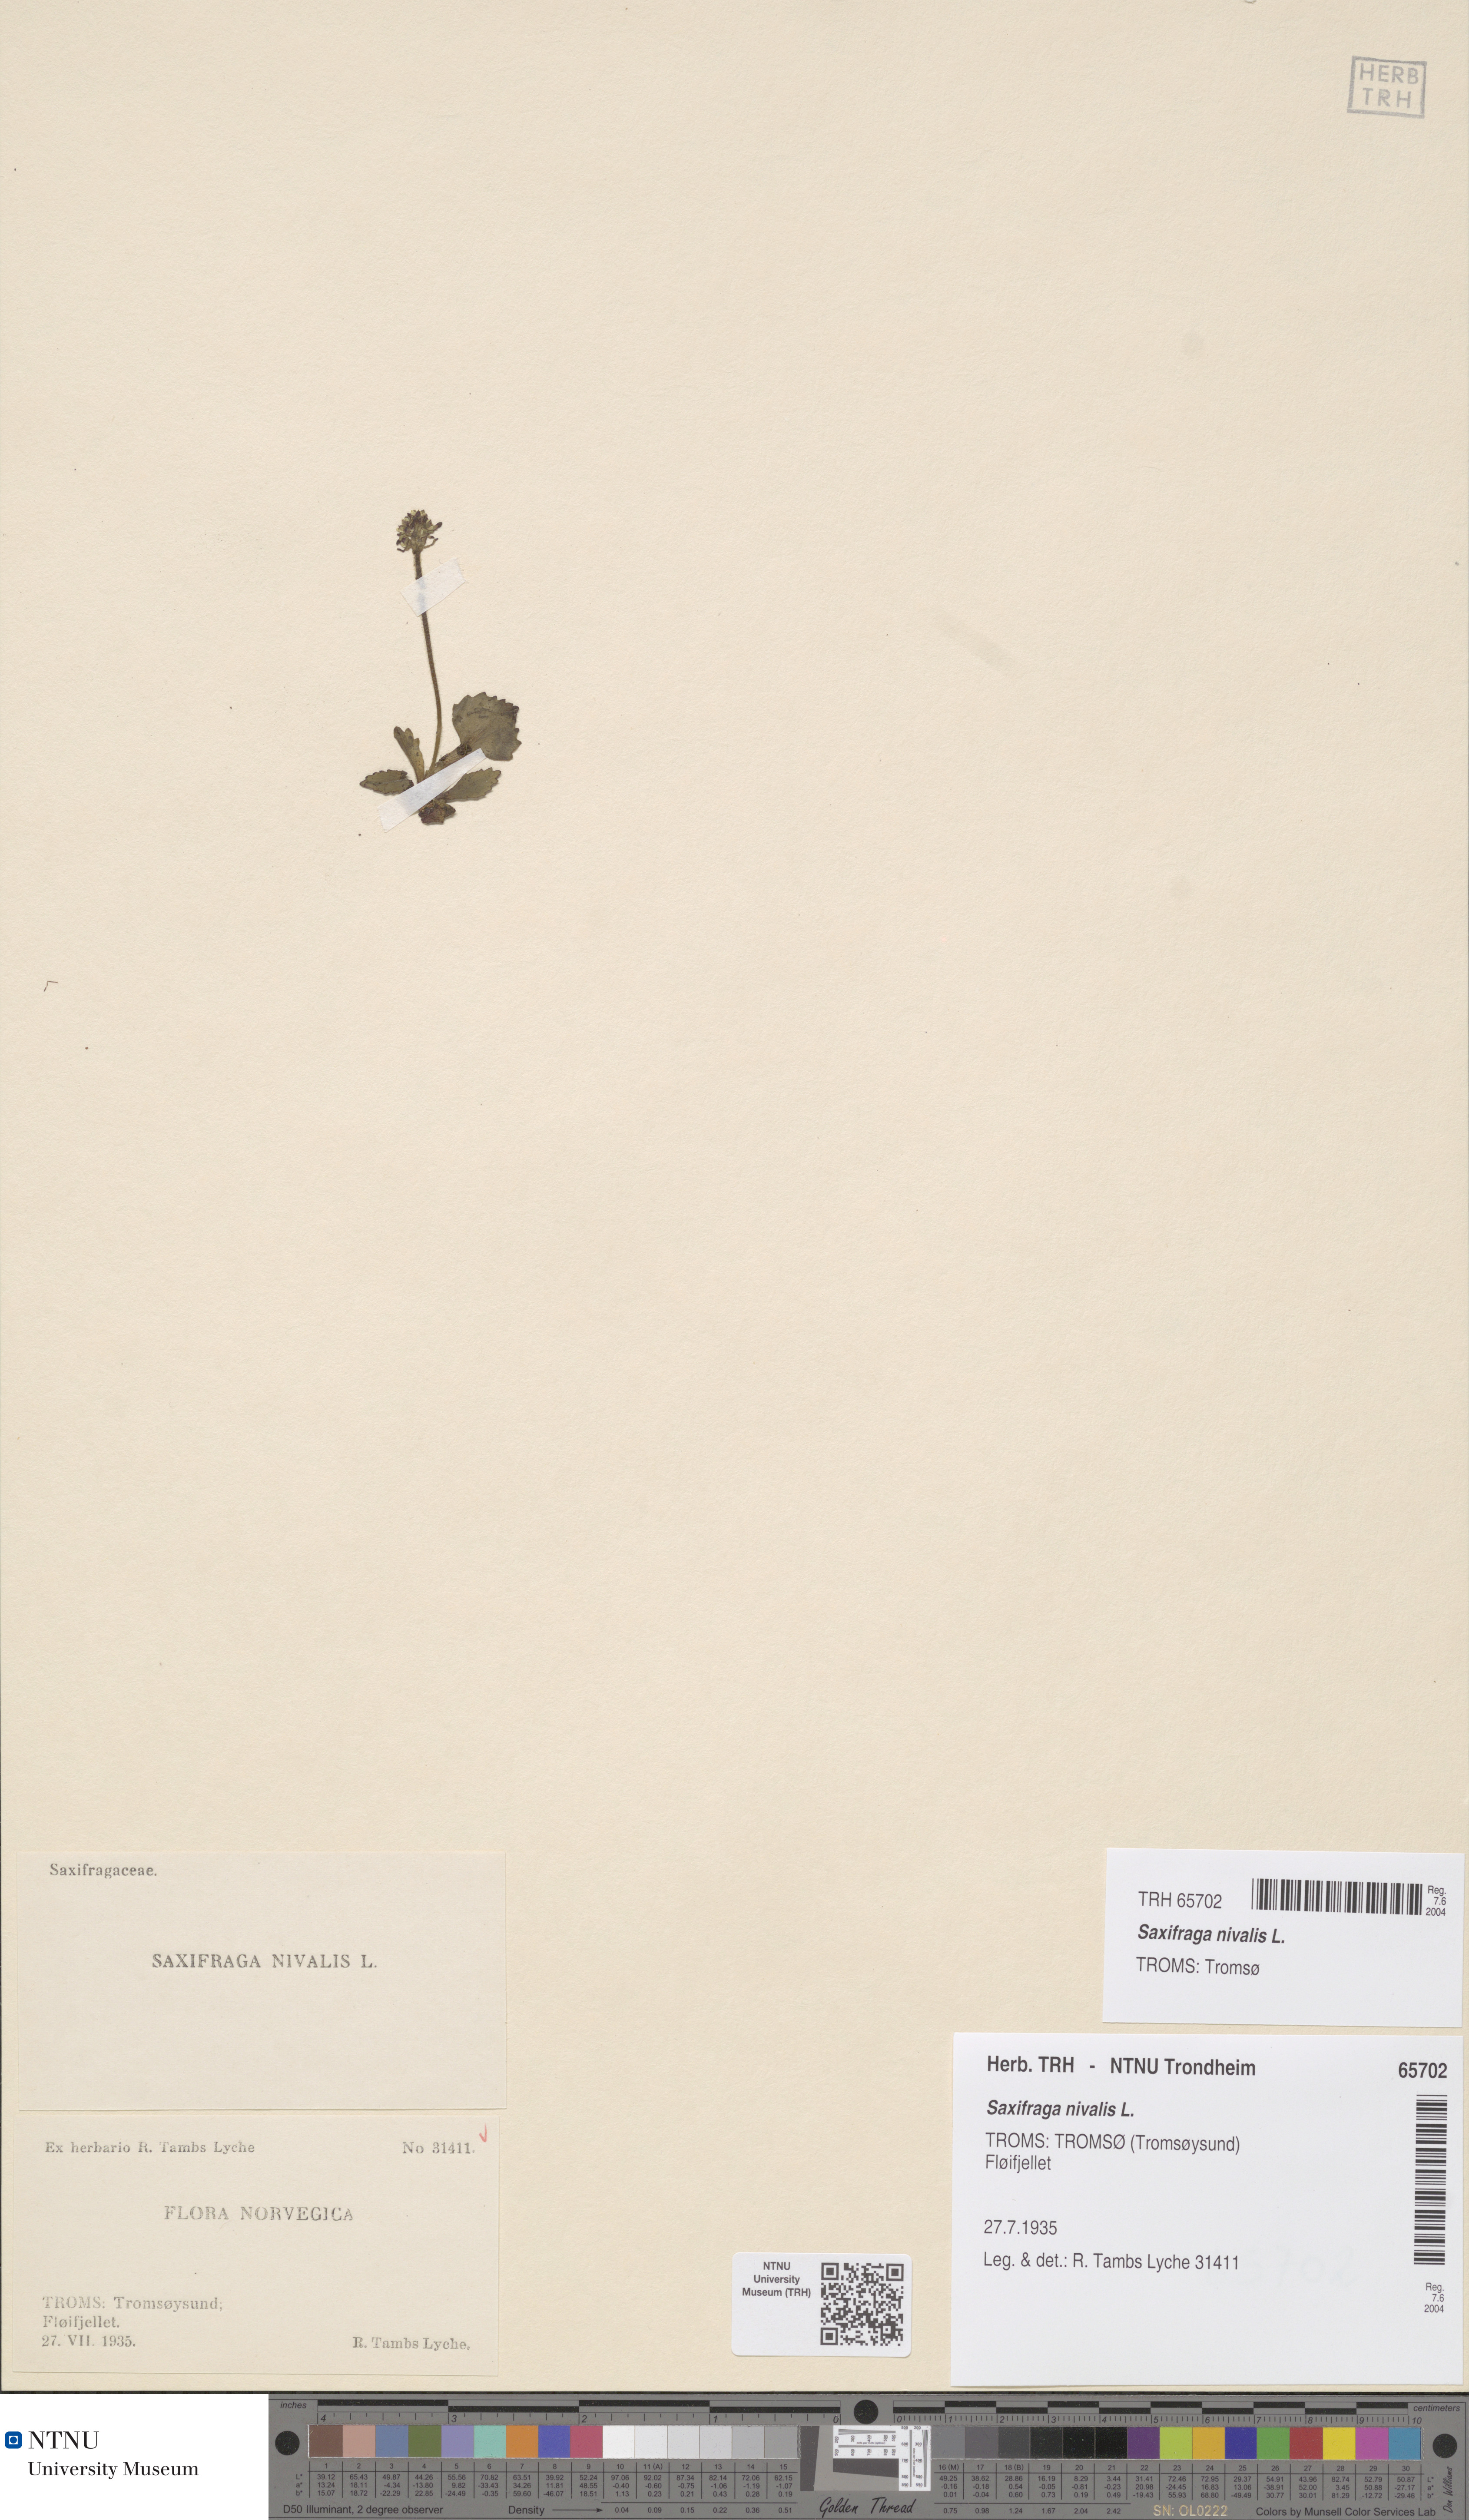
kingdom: Plantae
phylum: Tracheophyta
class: Magnoliopsida
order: Saxifragales
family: Saxifragaceae
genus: Micranthes
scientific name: Micranthes nivalis
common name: Alpine saxifrage
